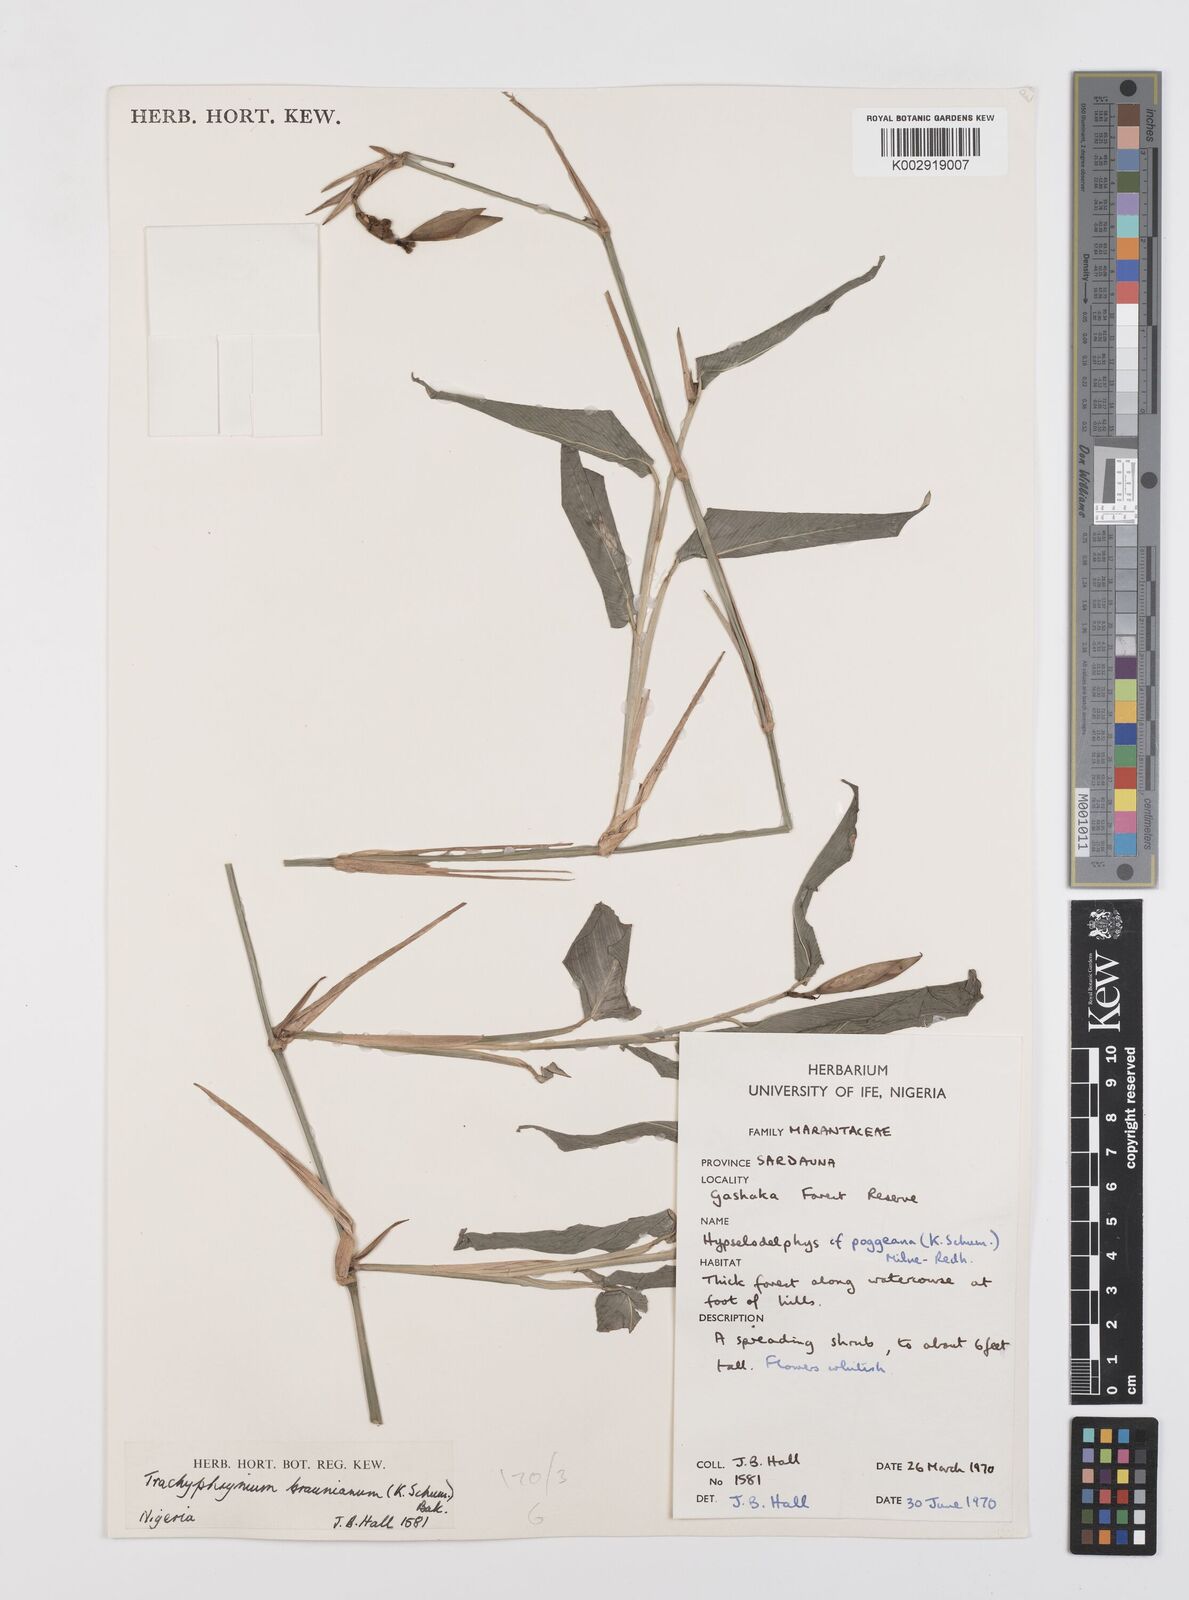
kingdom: Plantae
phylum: Tracheophyta
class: Liliopsida
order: Zingiberales
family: Marantaceae
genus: Trachyphrynium
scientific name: Trachyphrynium braunianum
